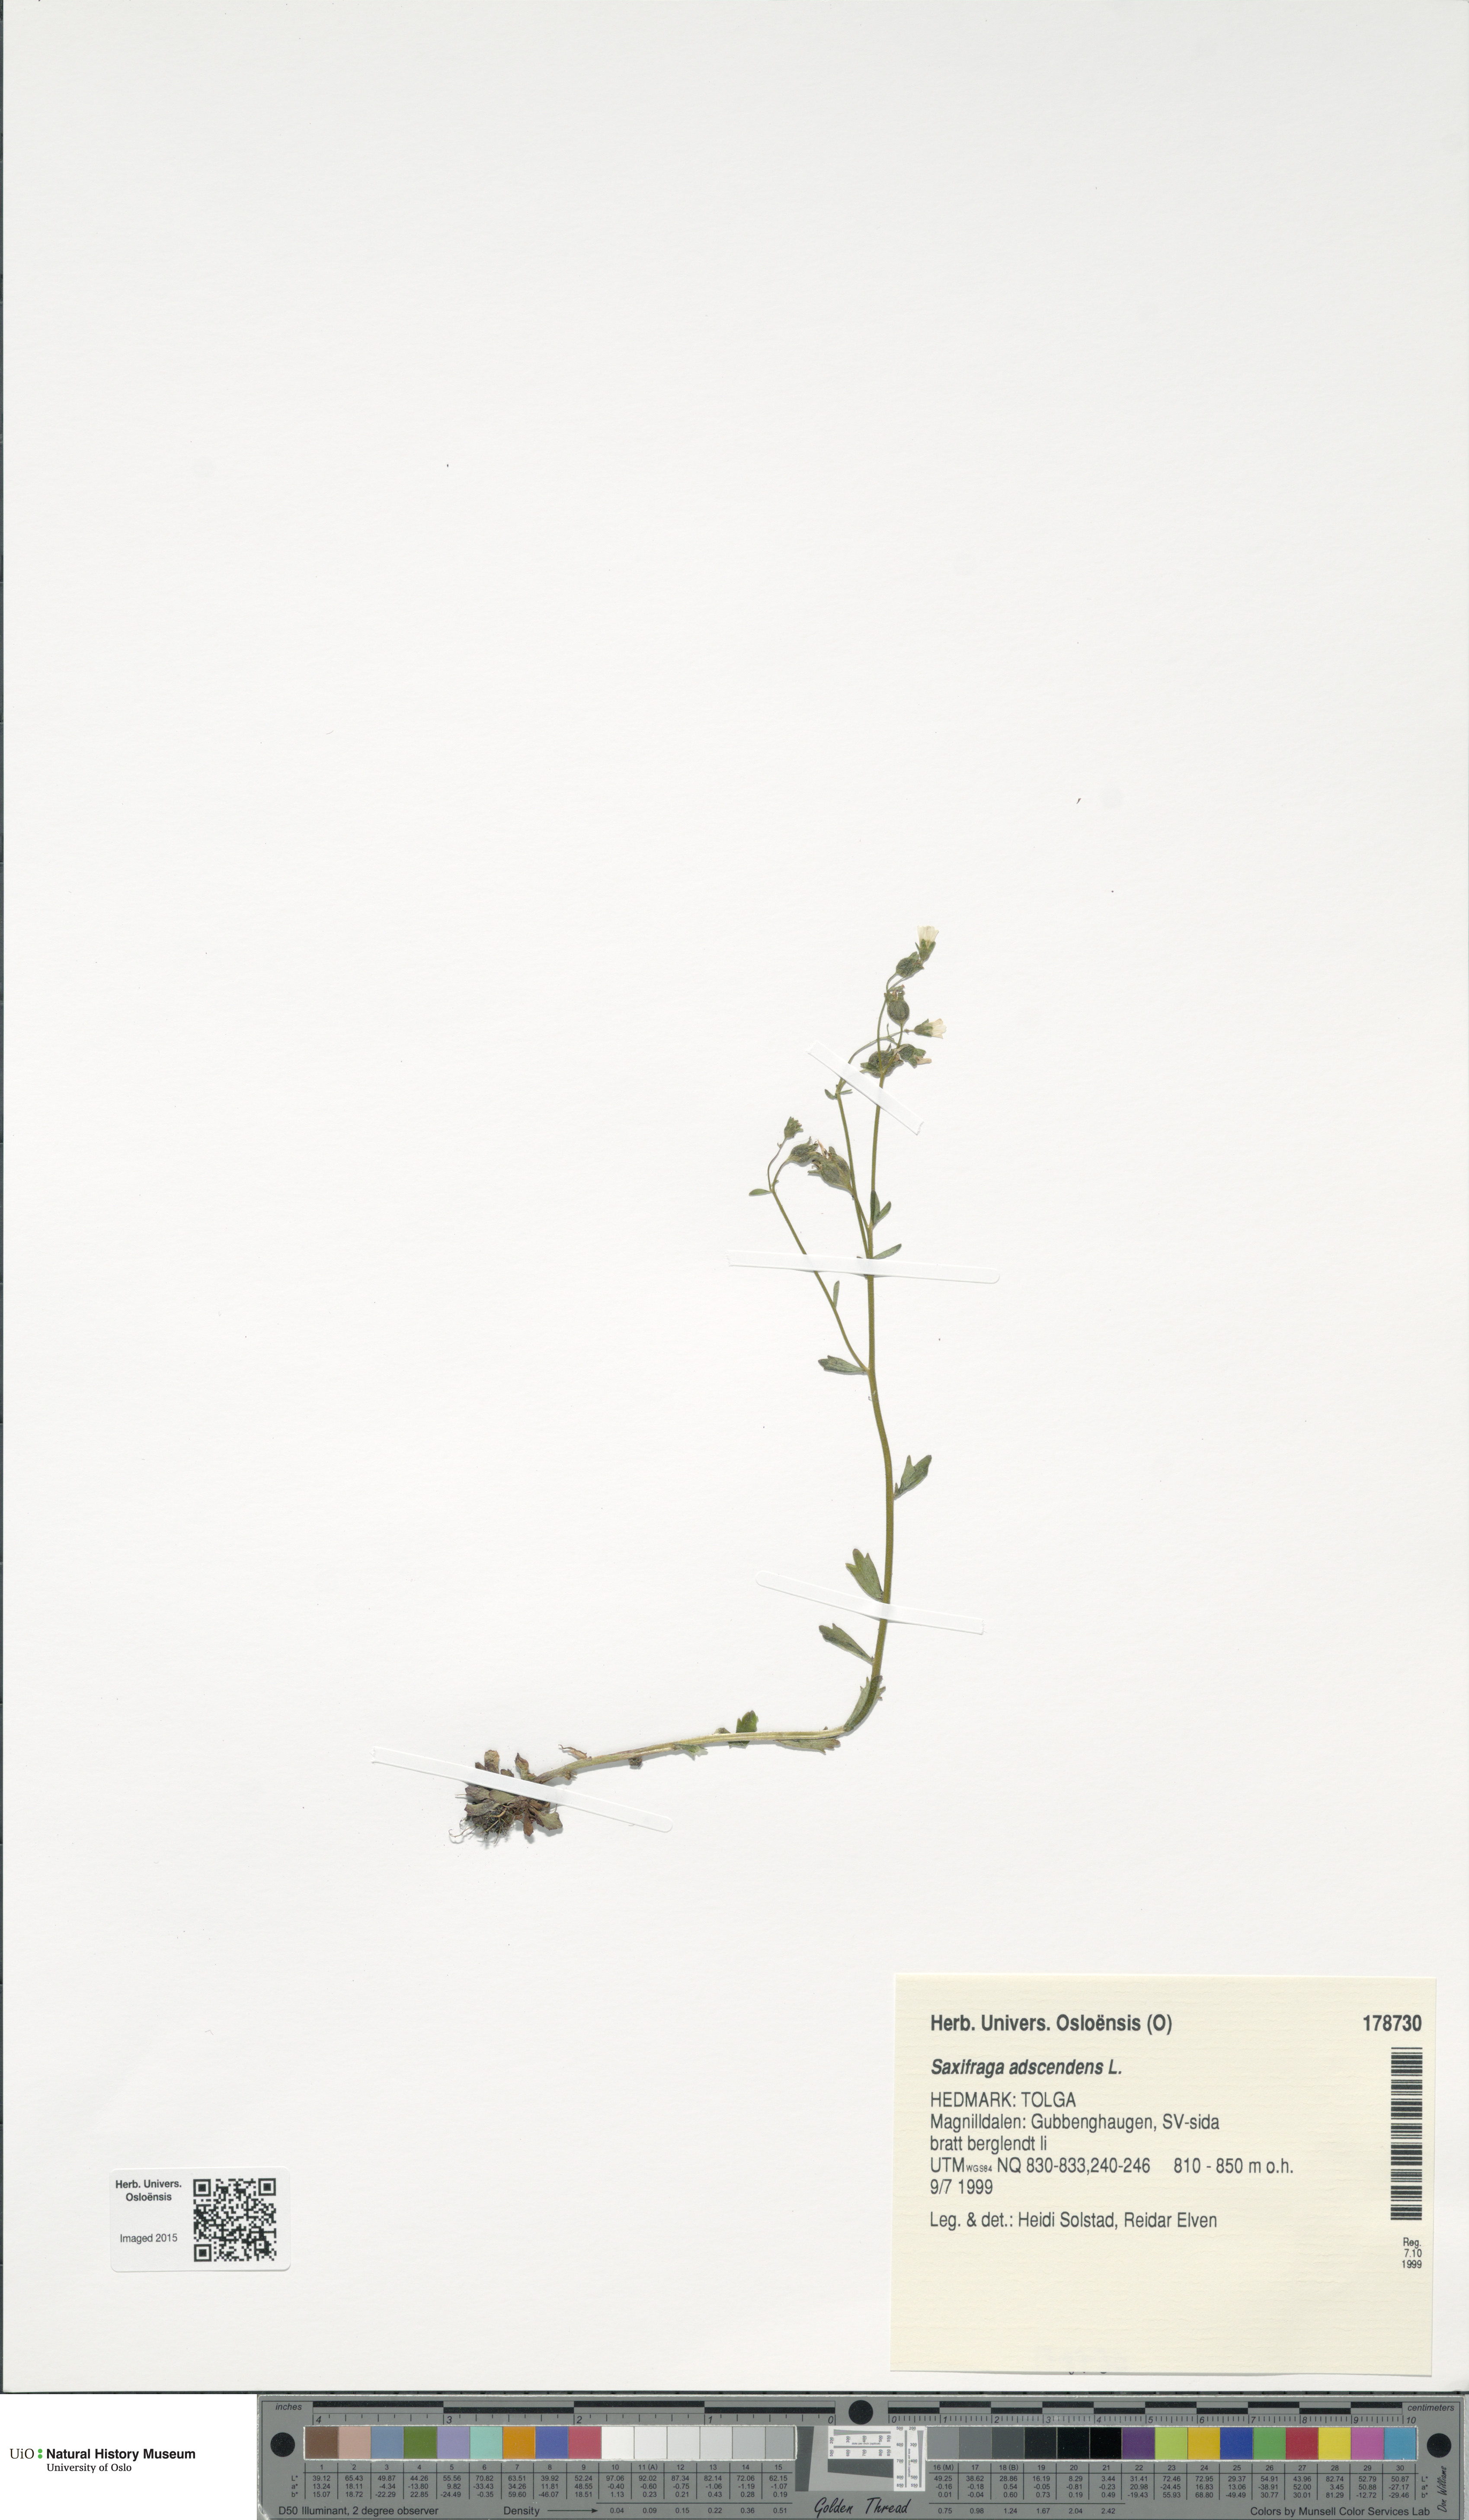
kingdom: Plantae
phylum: Tracheophyta
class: Magnoliopsida
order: Saxifragales
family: Saxifragaceae
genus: Saxifraga
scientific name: Saxifraga adscendens
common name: Ascending saxifrage
